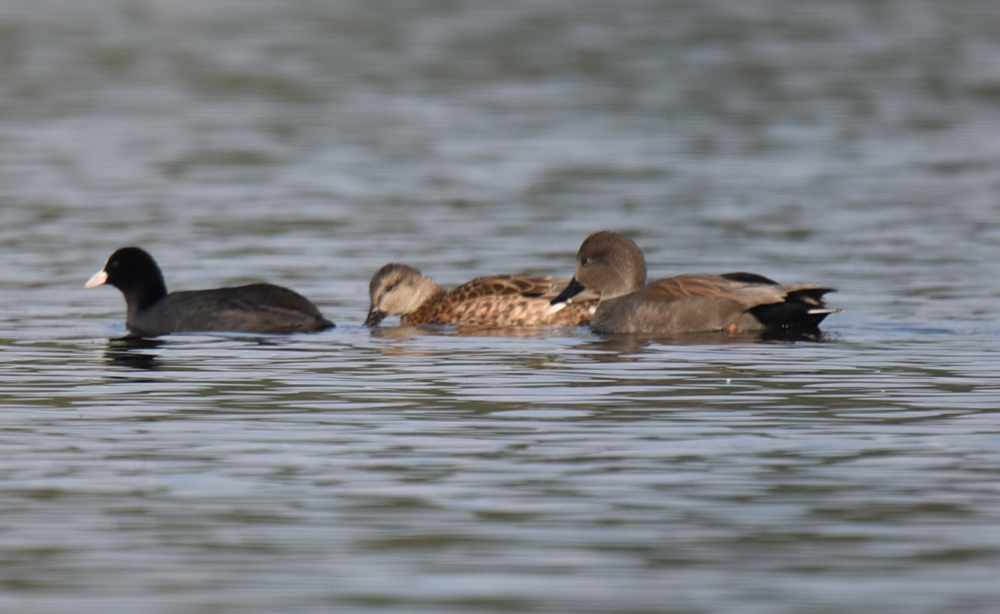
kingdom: Animalia
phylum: Chordata
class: Aves
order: Anseriformes
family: Anatidae
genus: Mareca
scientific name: Mareca strepera
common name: Gadwall
